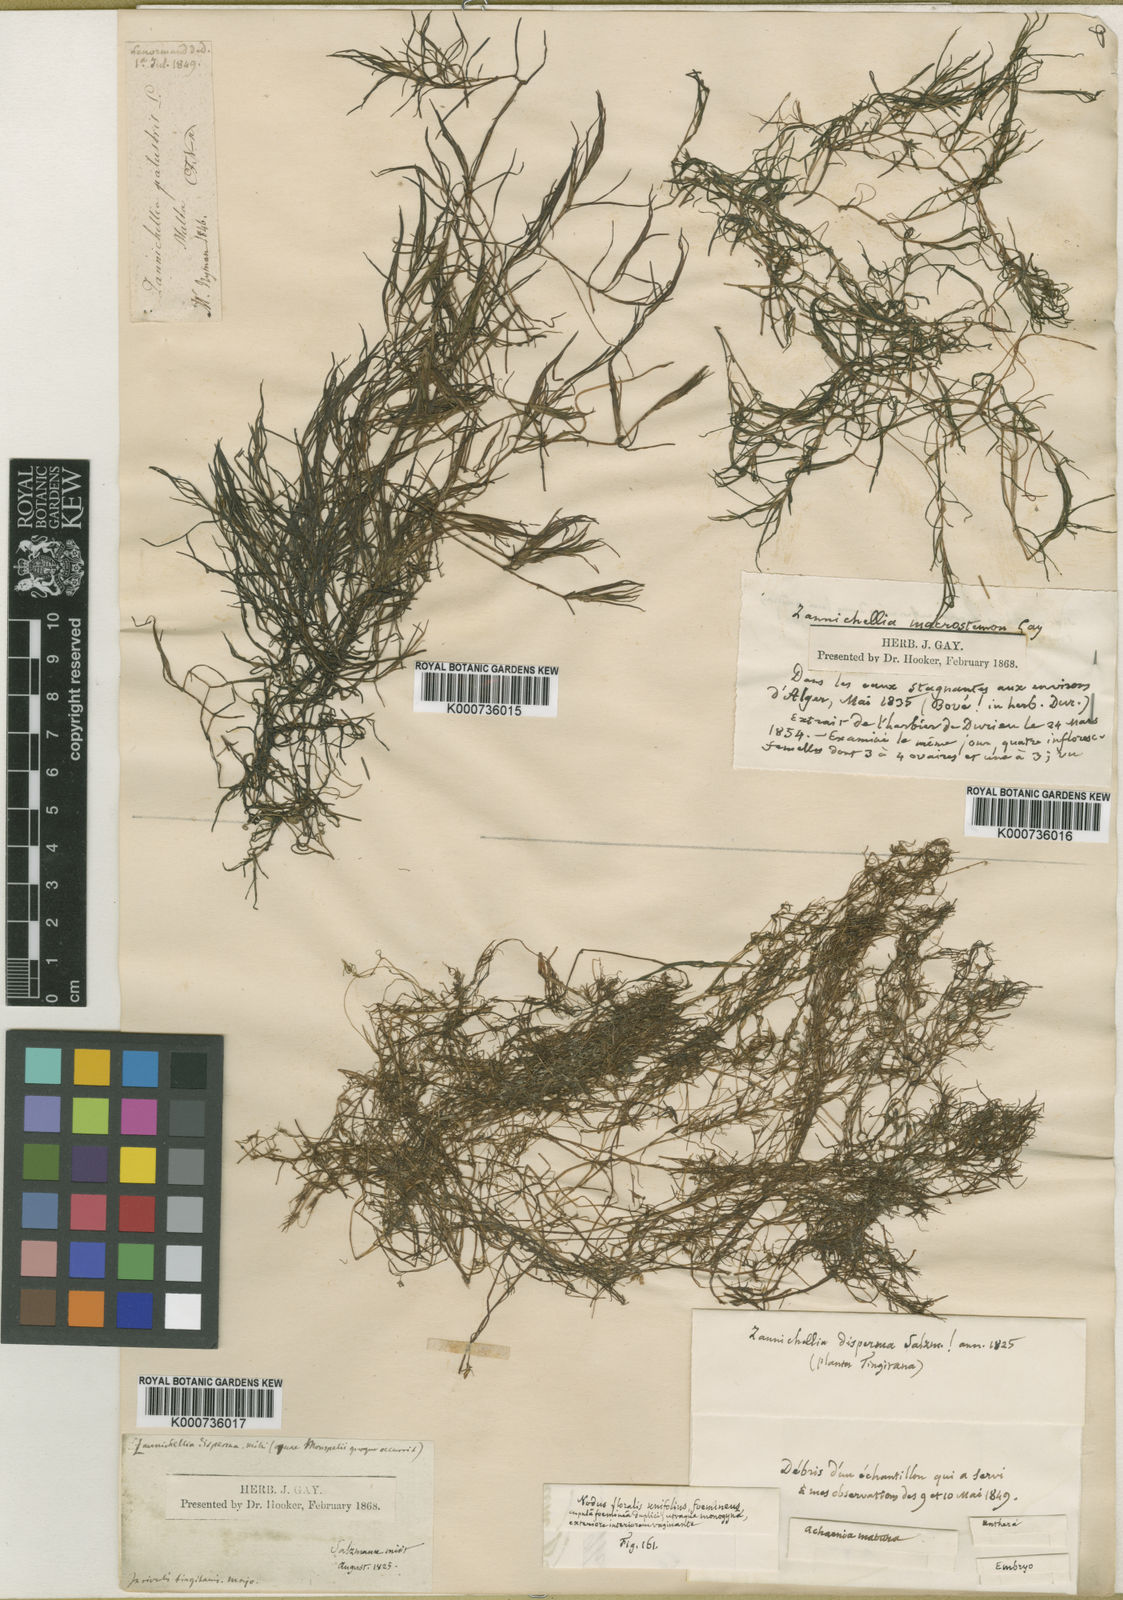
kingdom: Plantae
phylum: Tracheophyta
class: Liliopsida
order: Alismatales
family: Potamogetonaceae
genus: Zannichellia
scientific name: Zannichellia palustris
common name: Horned pondweed
